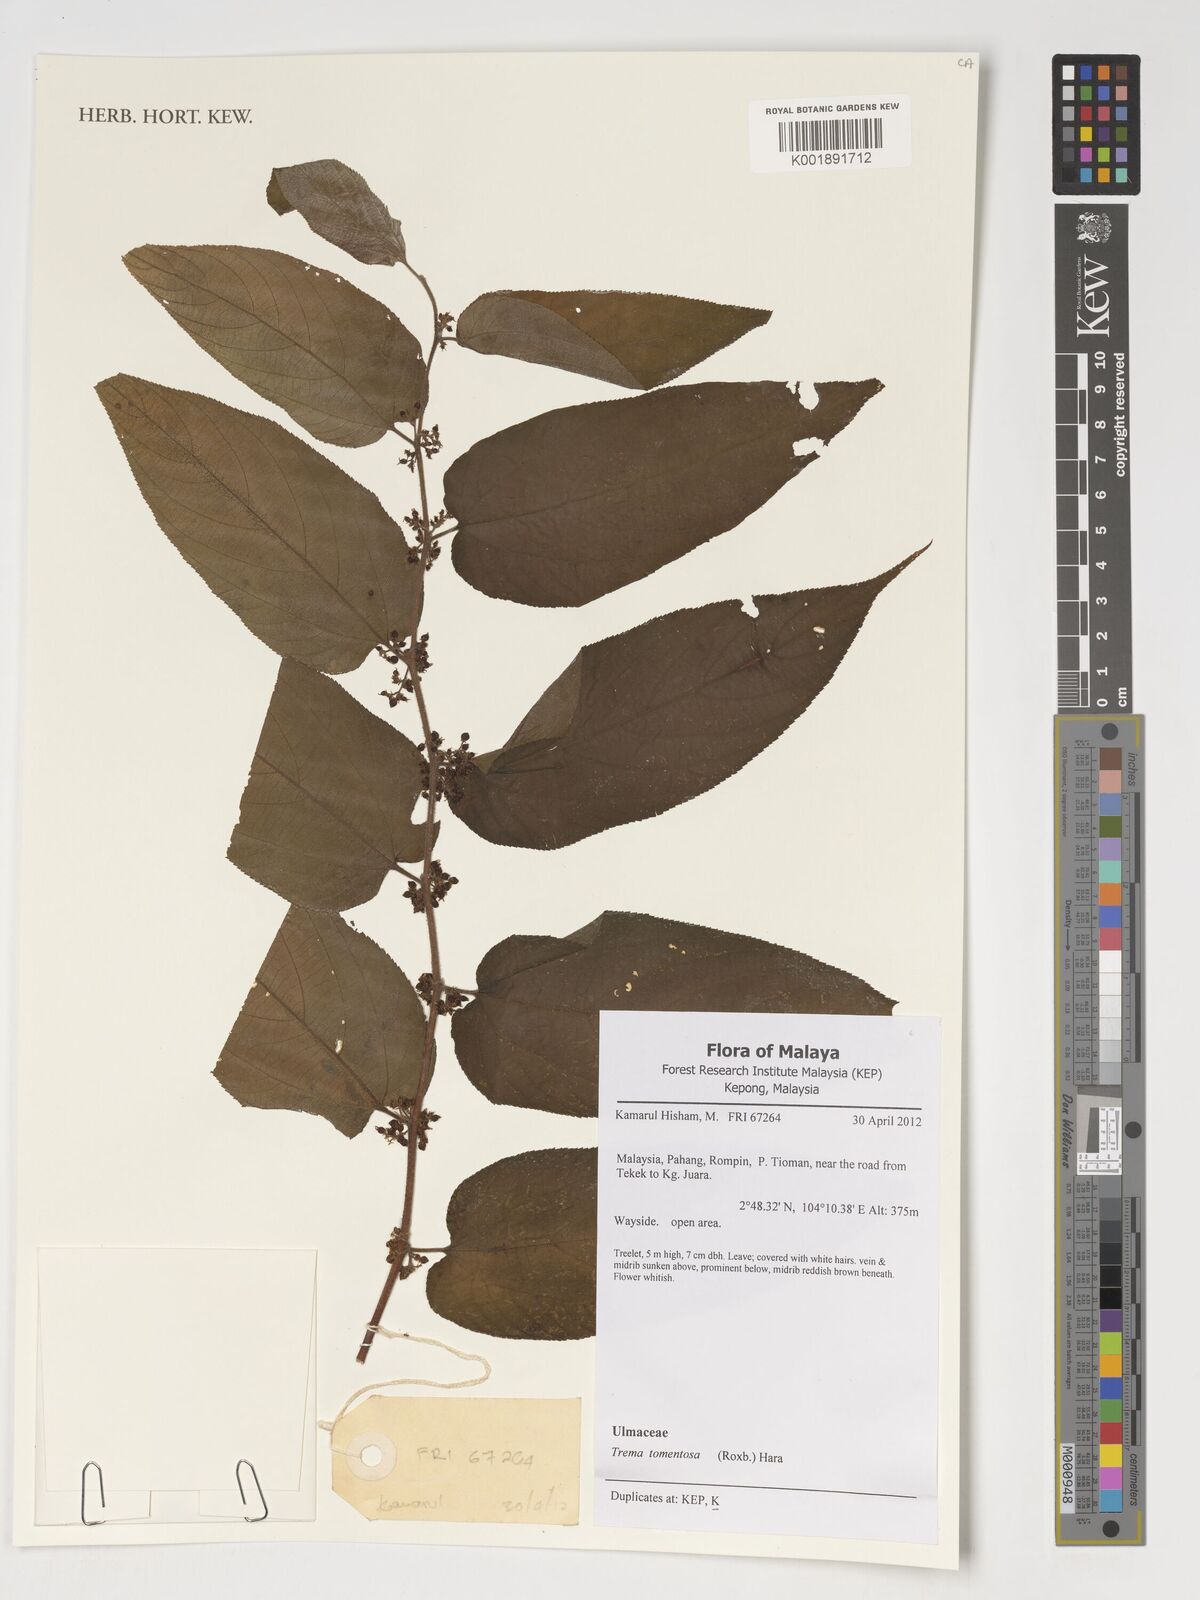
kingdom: Plantae
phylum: Tracheophyta
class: Magnoliopsida
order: Rosales
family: Cannabaceae
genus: Trema
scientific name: Trema tomentosum
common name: Peach-leaf-poisonbush
